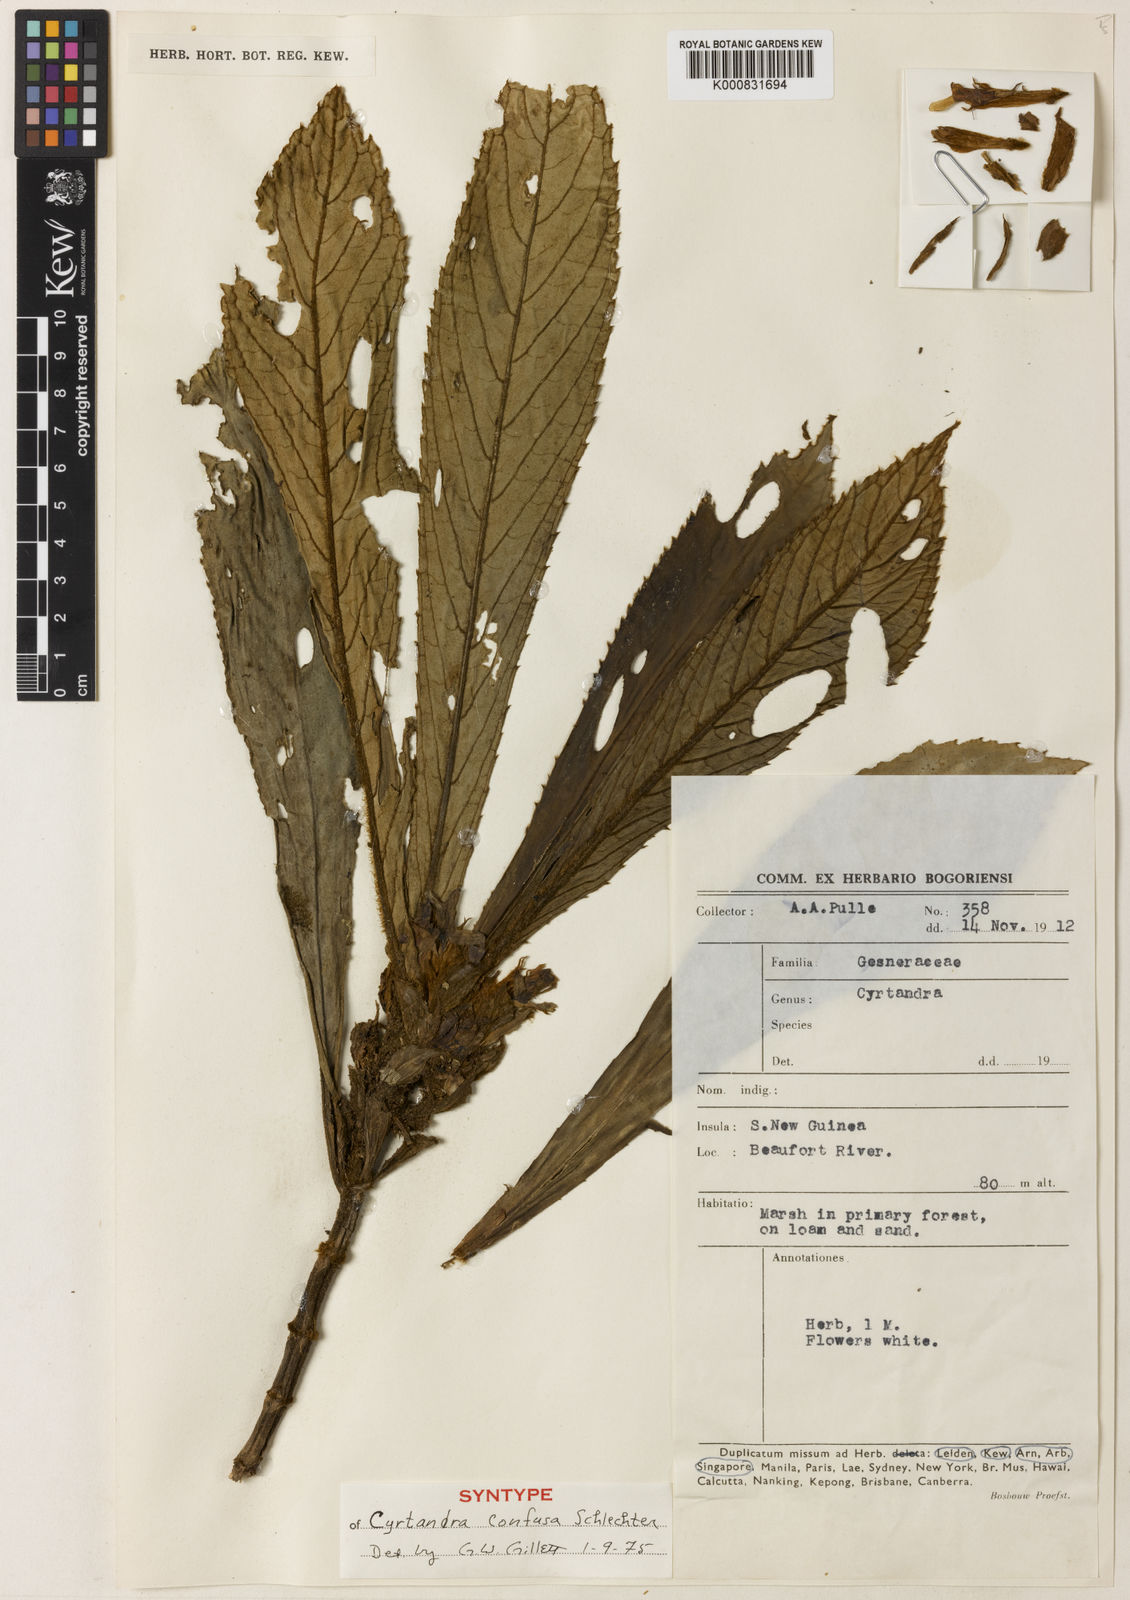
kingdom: Plantae
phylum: Tracheophyta
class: Magnoliopsida
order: Lamiales
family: Gesneriaceae
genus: Cyrtandra
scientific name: Cyrtandra confusa
